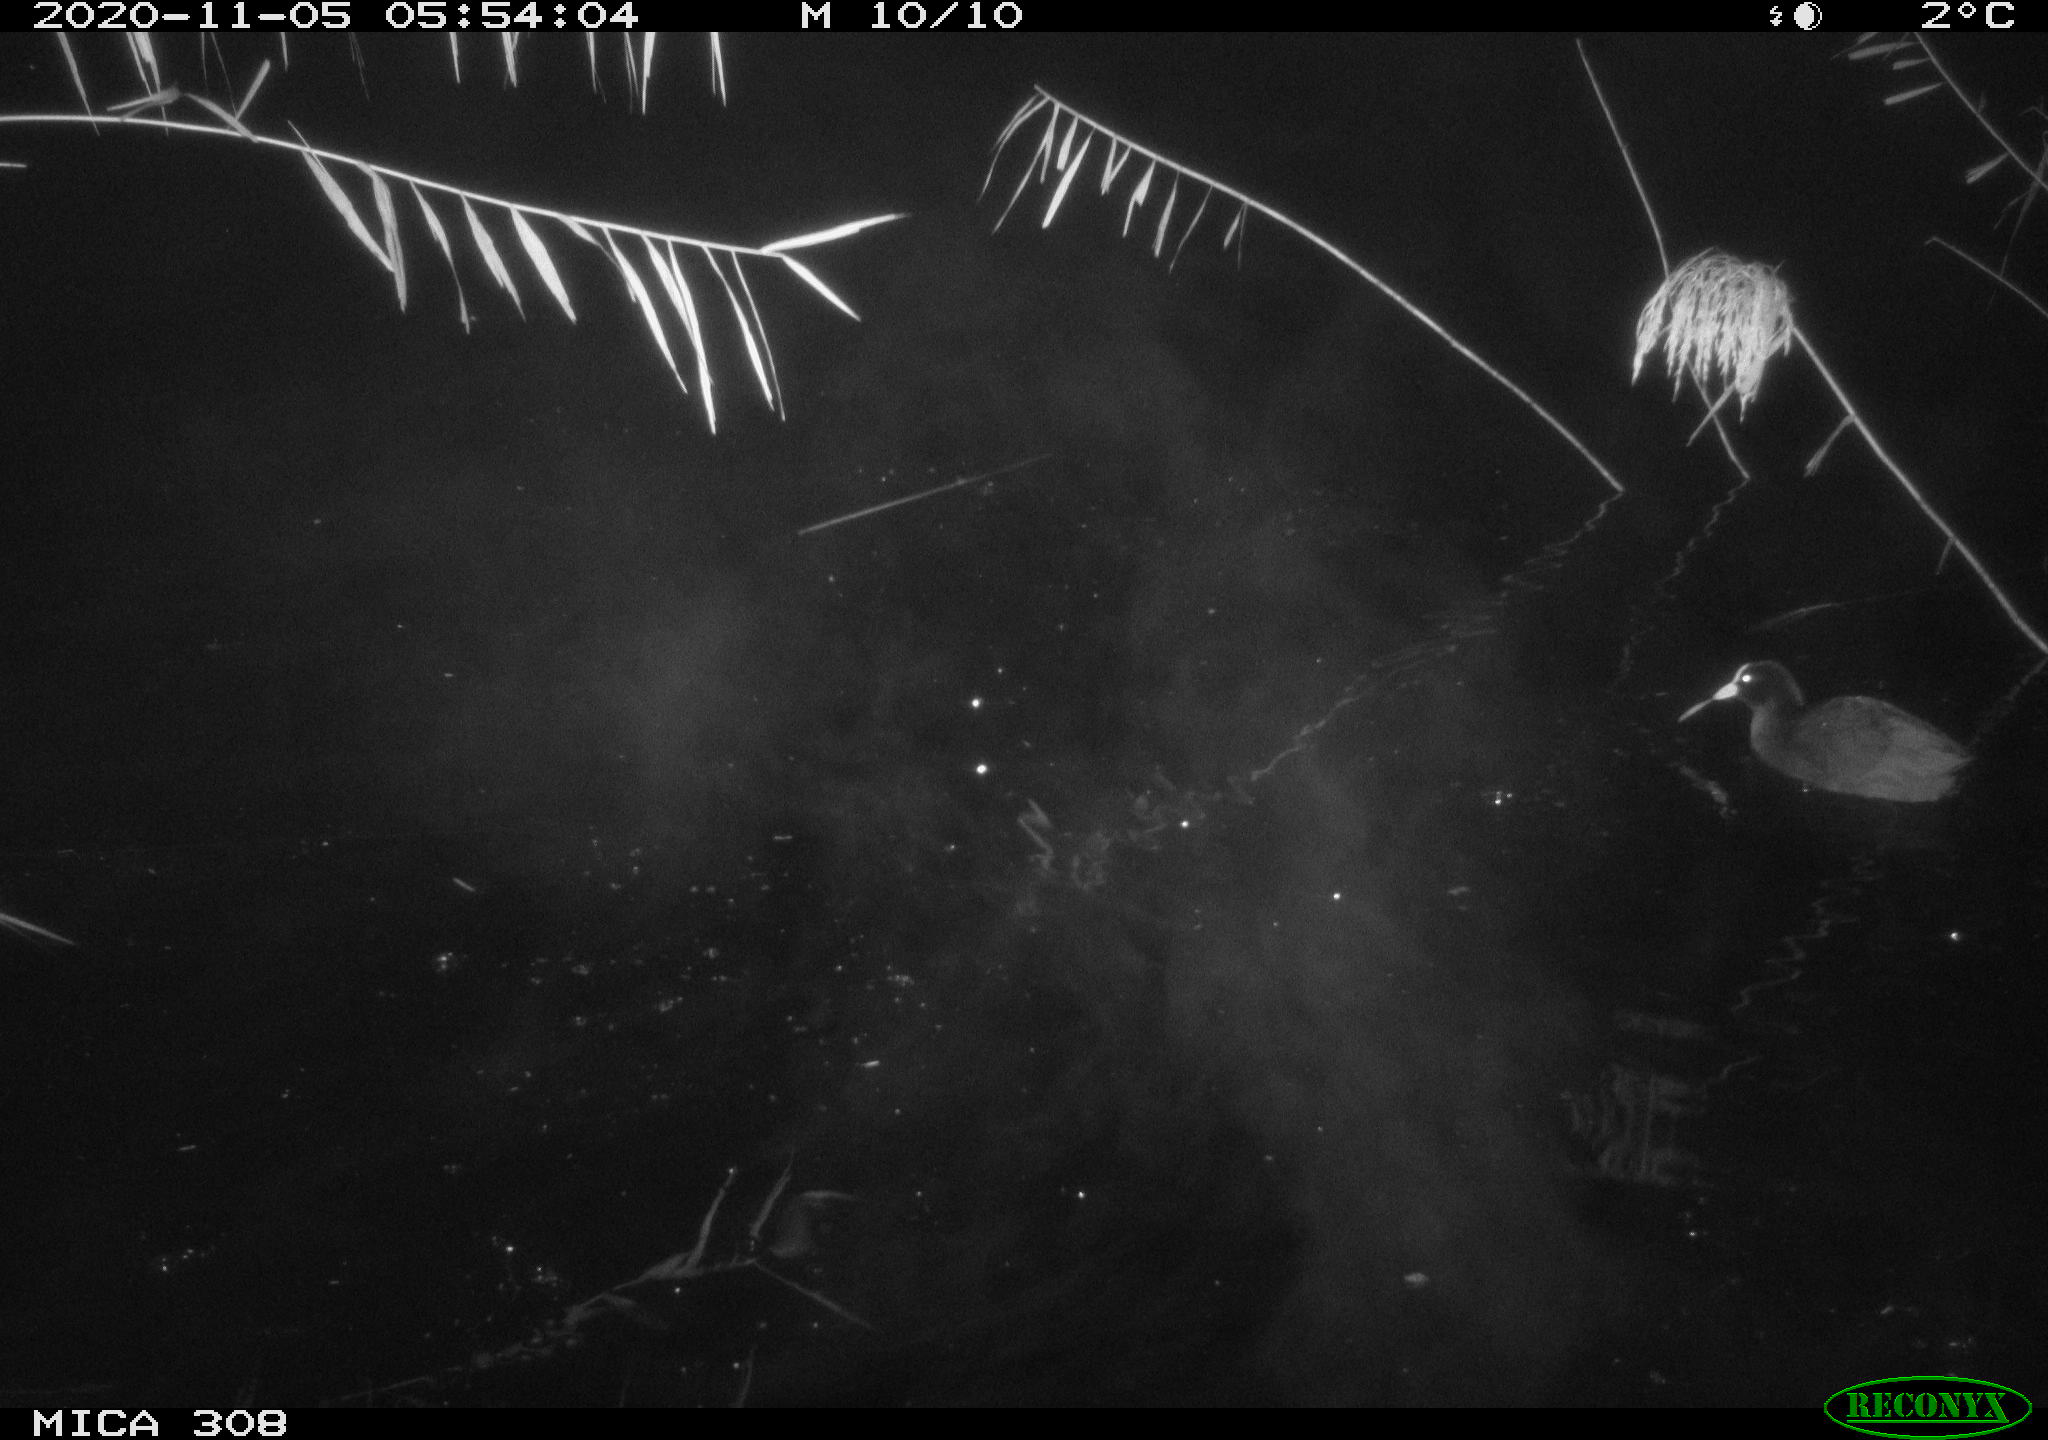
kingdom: Animalia
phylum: Chordata
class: Aves
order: Gruiformes
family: Rallidae
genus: Gallinula
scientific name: Gallinula chloropus
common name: Common moorhen
